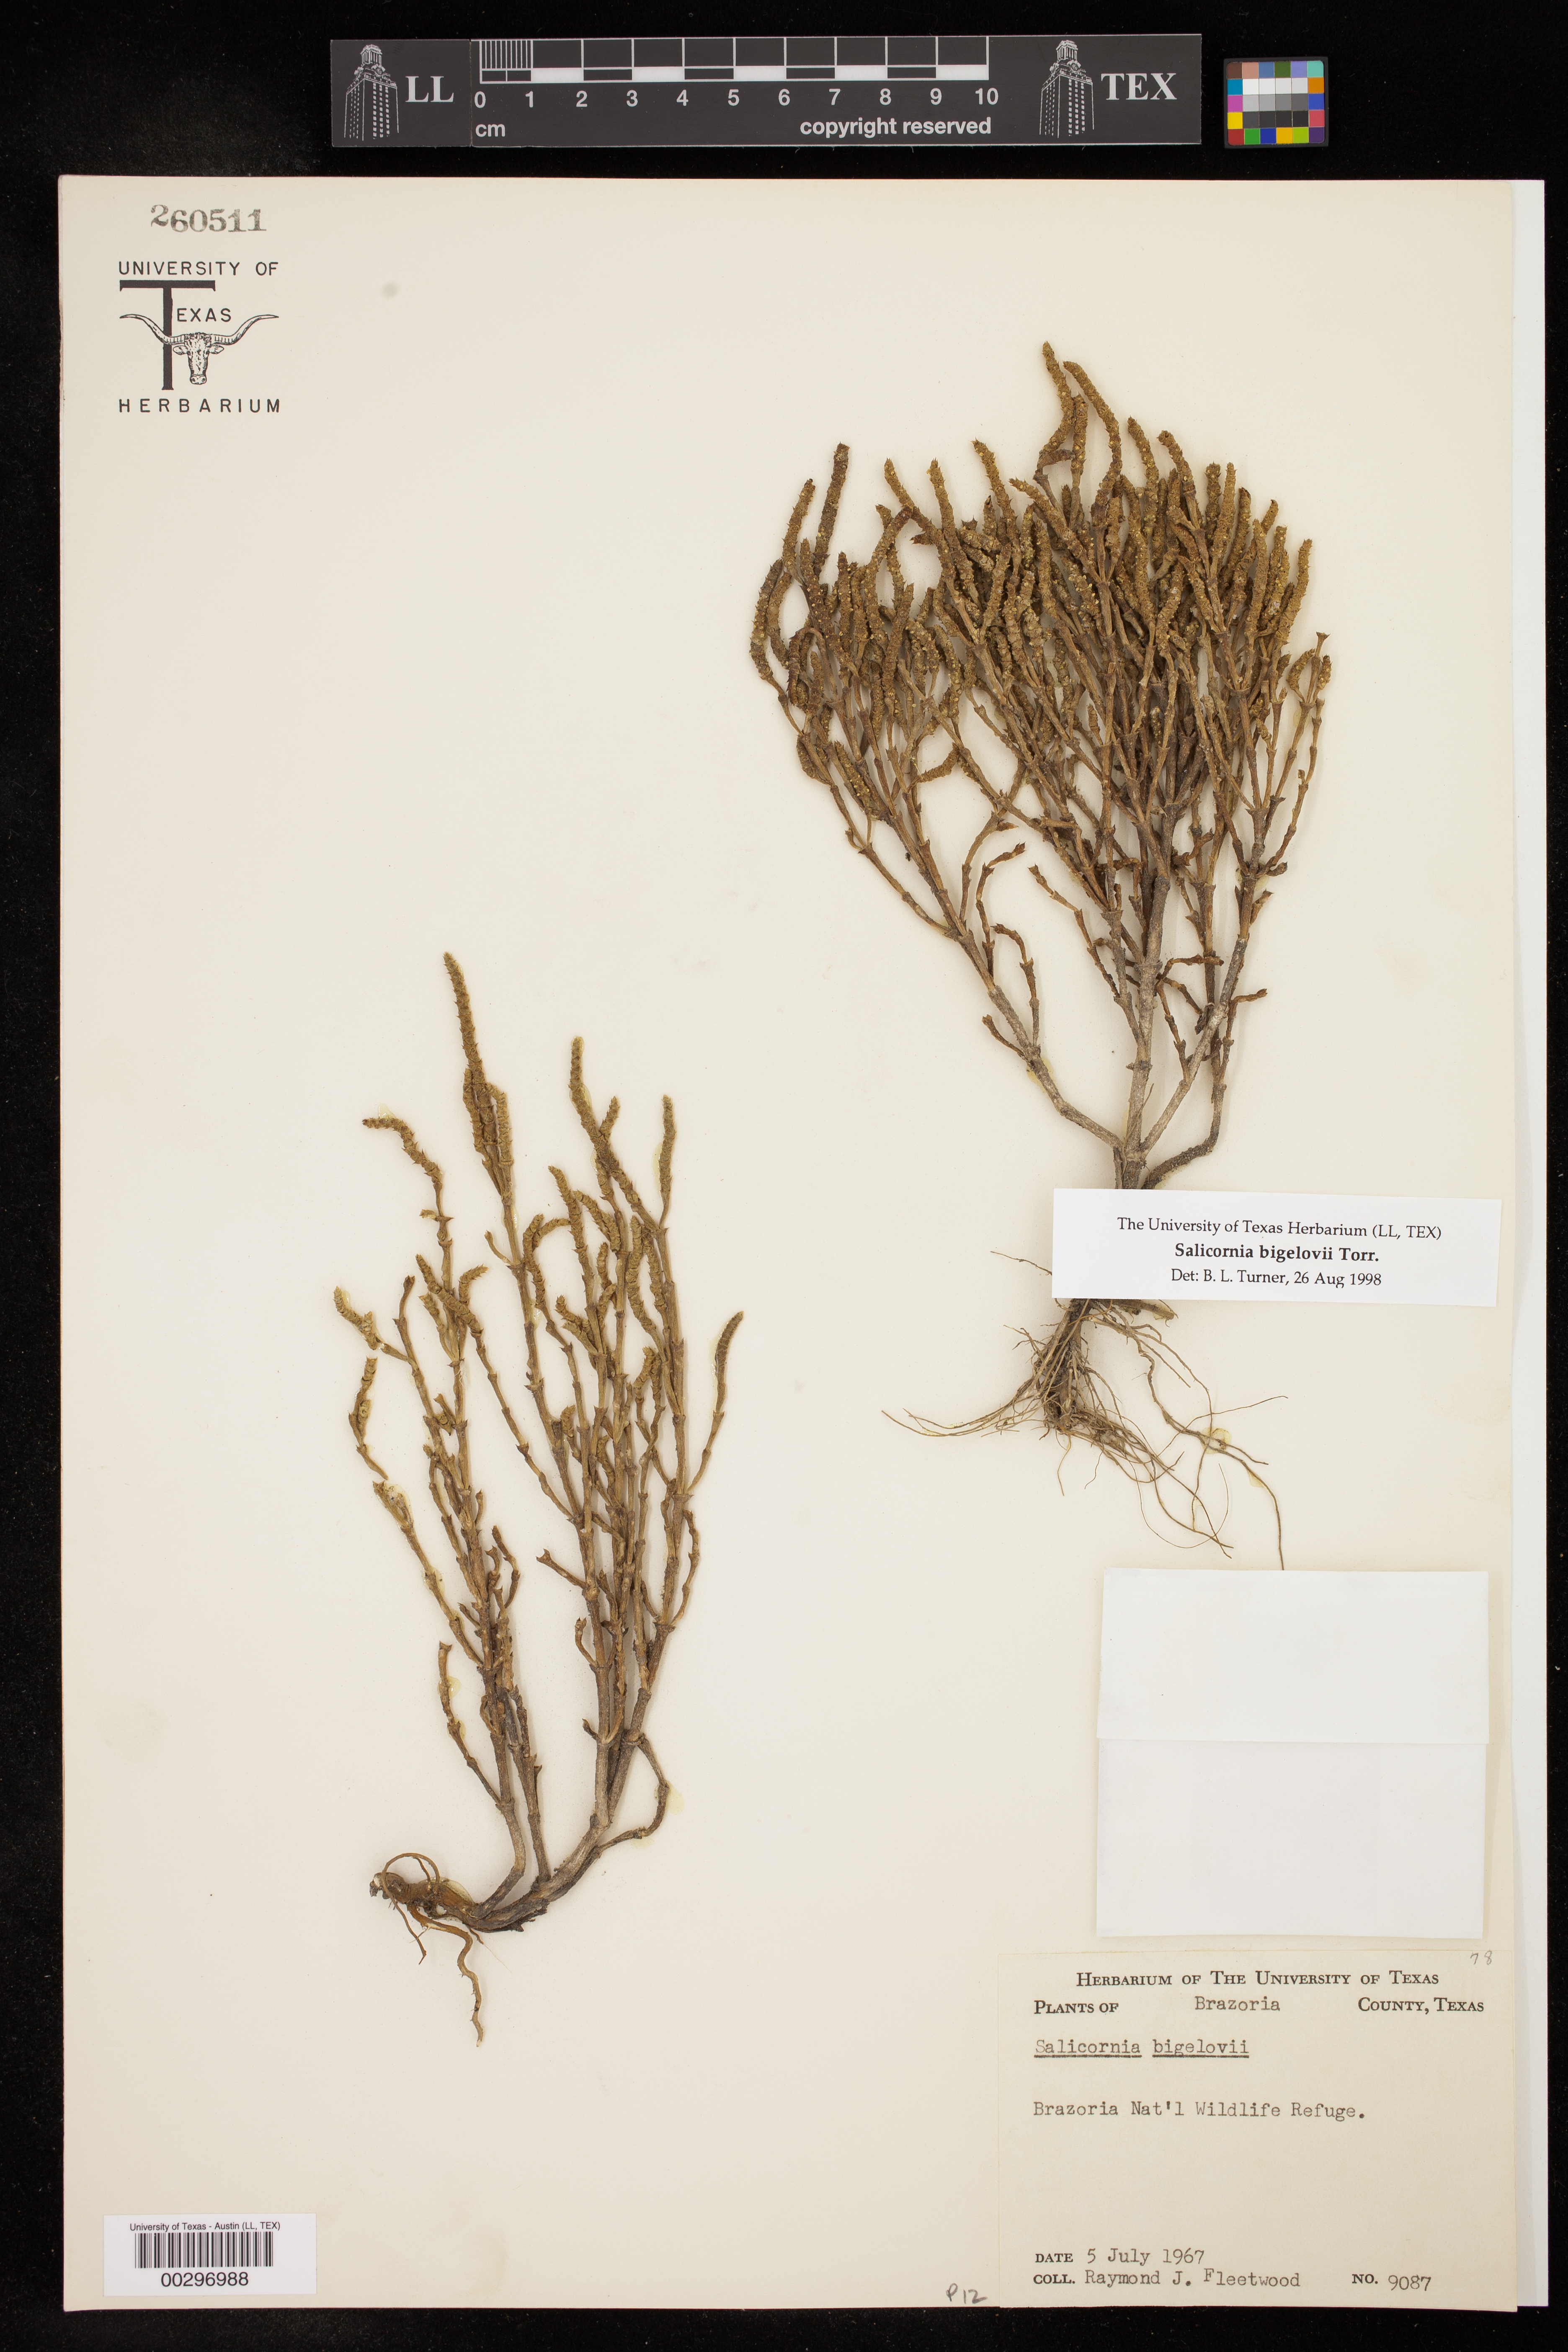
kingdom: Plantae
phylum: Tracheophyta
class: Magnoliopsida
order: Caryophyllales
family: Amaranthaceae
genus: Salicornia
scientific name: Salicornia bigelovii
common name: Dwarf glasswort
